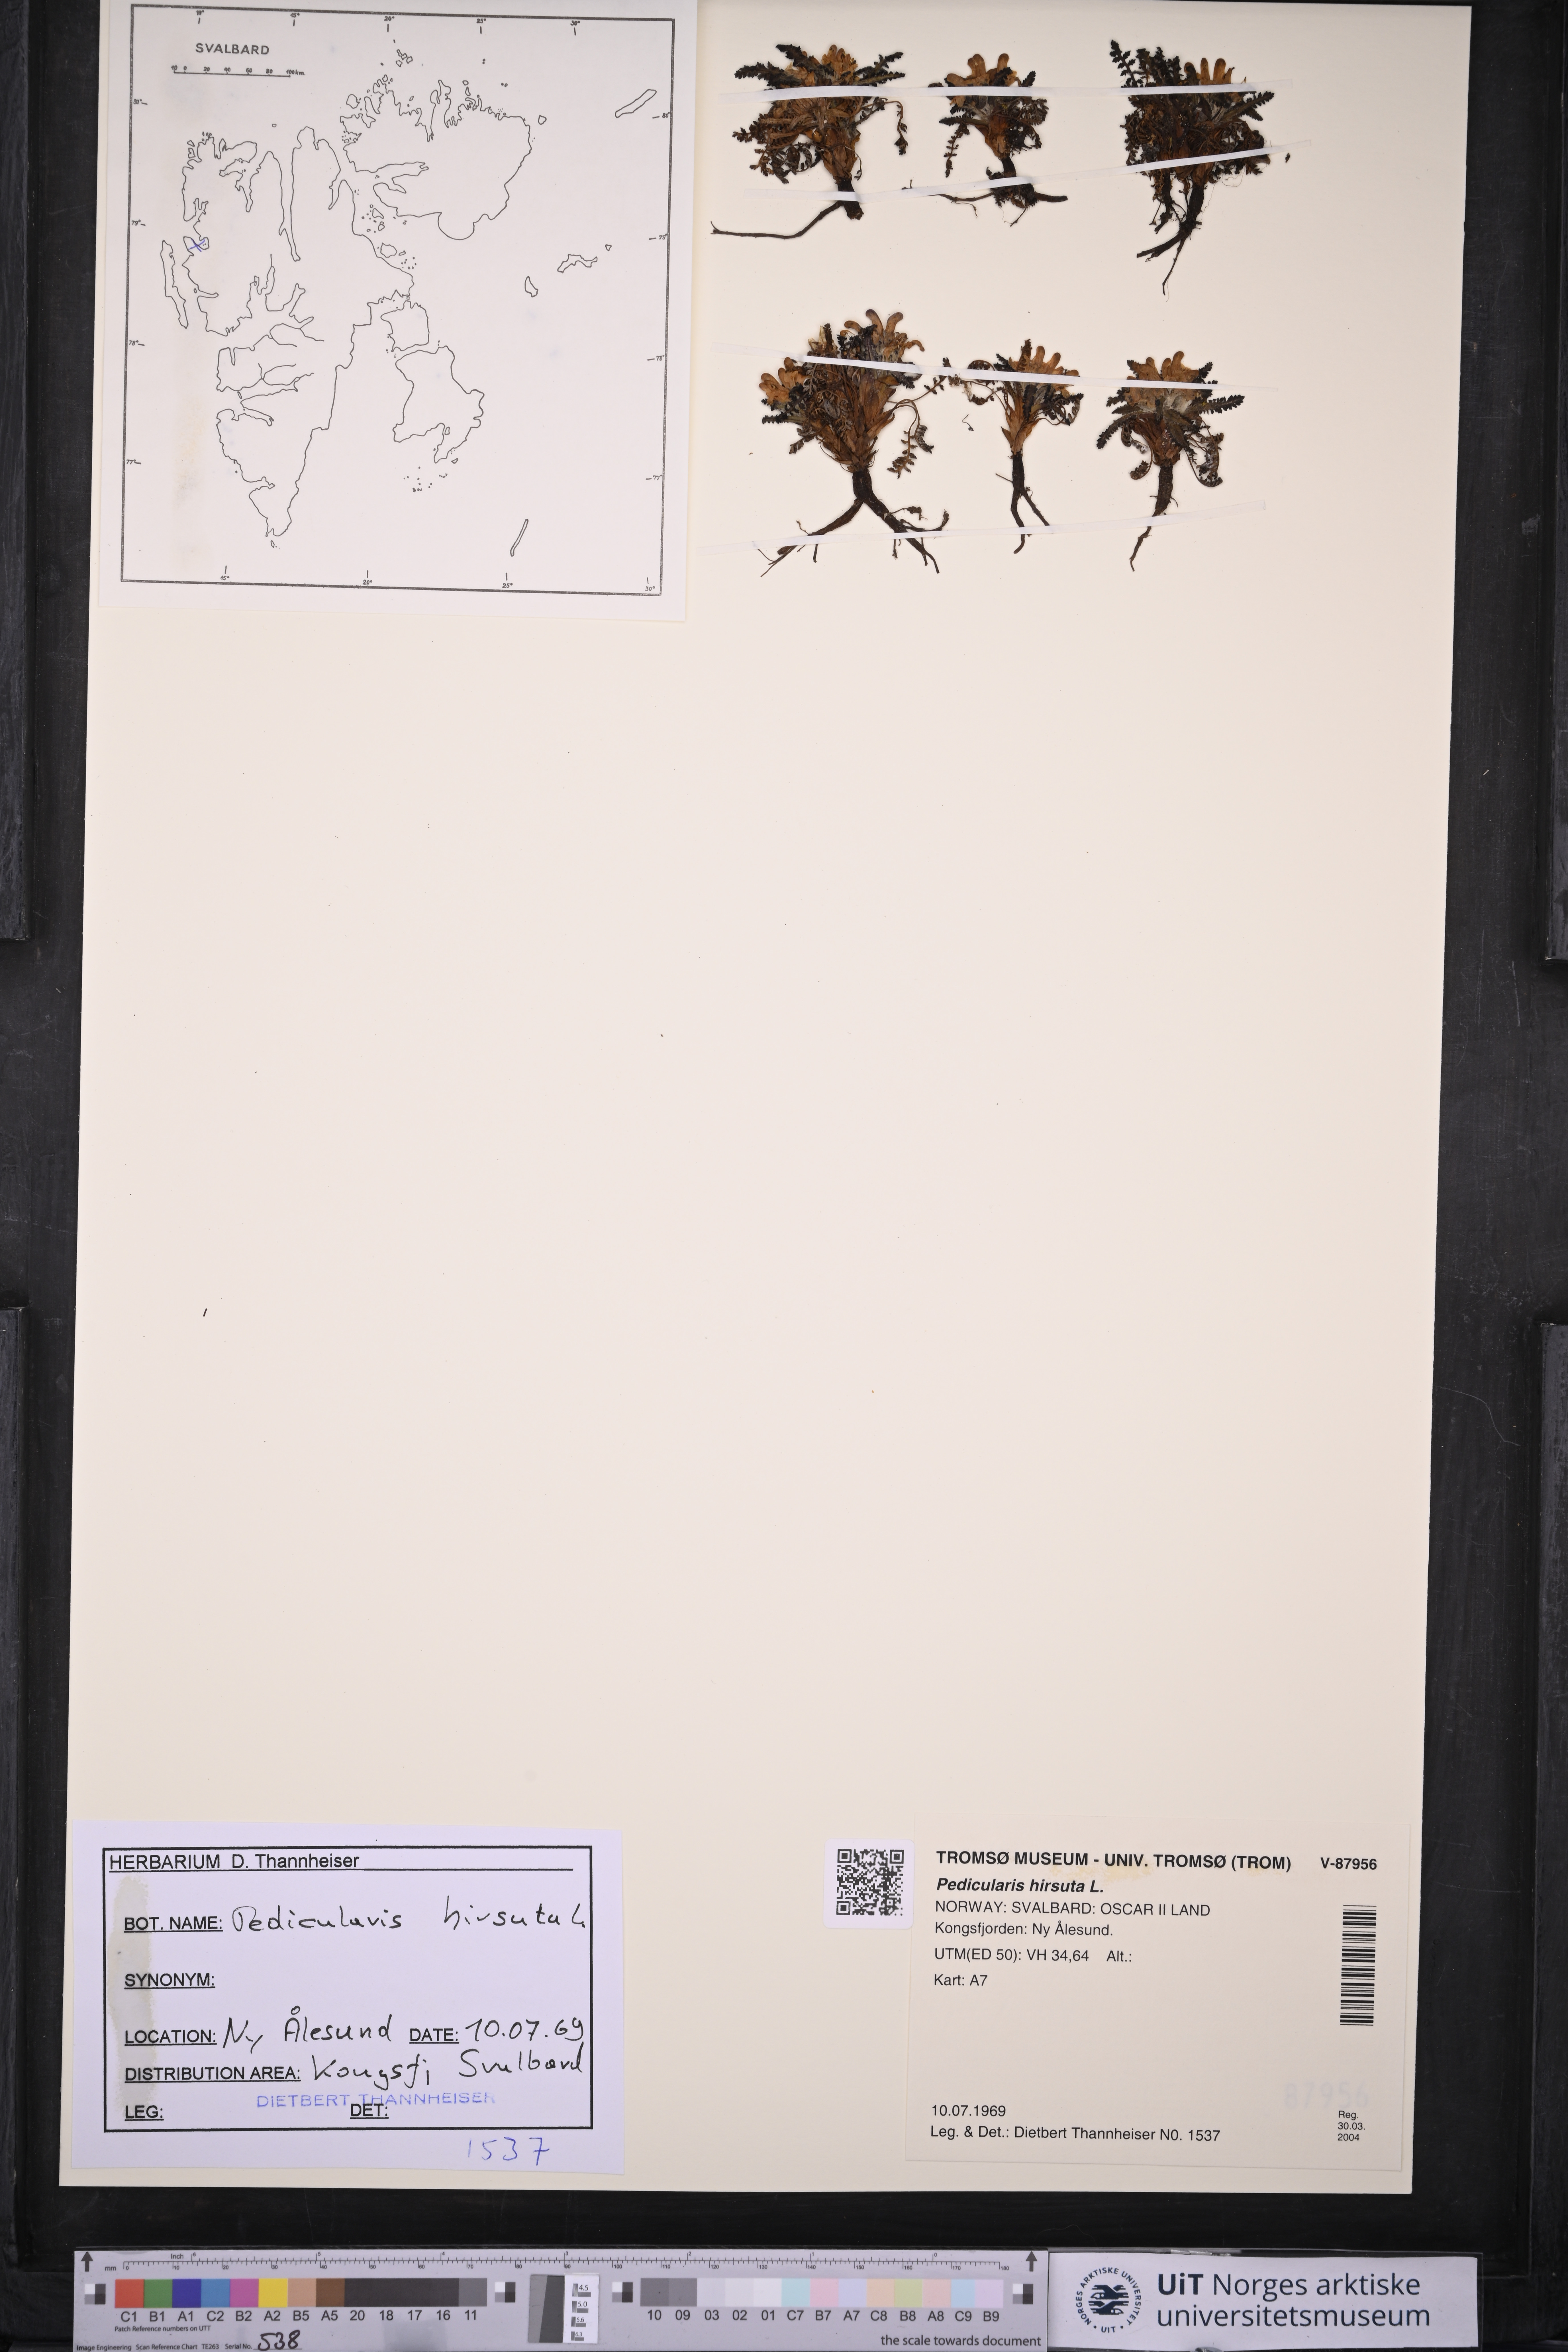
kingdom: Plantae
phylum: Tracheophyta
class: Magnoliopsida
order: Lamiales
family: Orobanchaceae
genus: Pedicularis
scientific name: Pedicularis hirsuta
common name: Hairy lousewort
